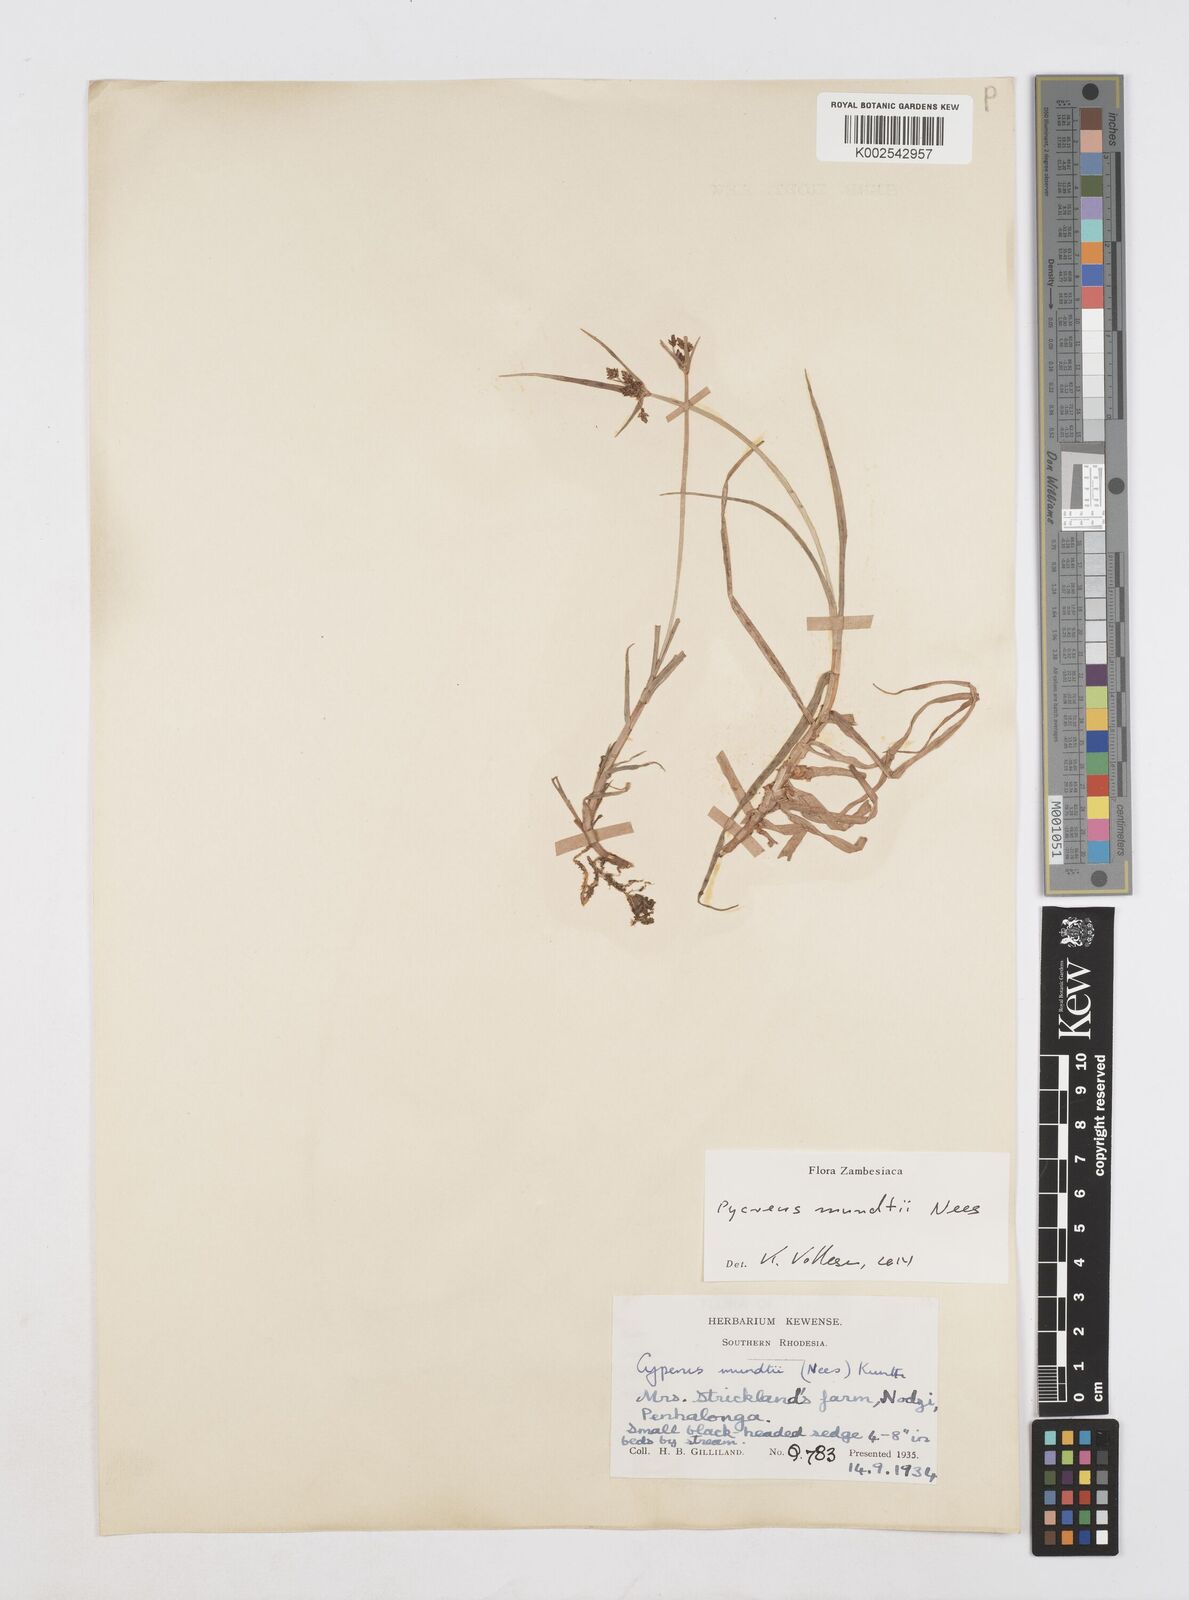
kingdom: Plantae
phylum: Tracheophyta
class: Liliopsida
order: Poales
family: Cyperaceae
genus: Cyperus
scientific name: Cyperus mundii
